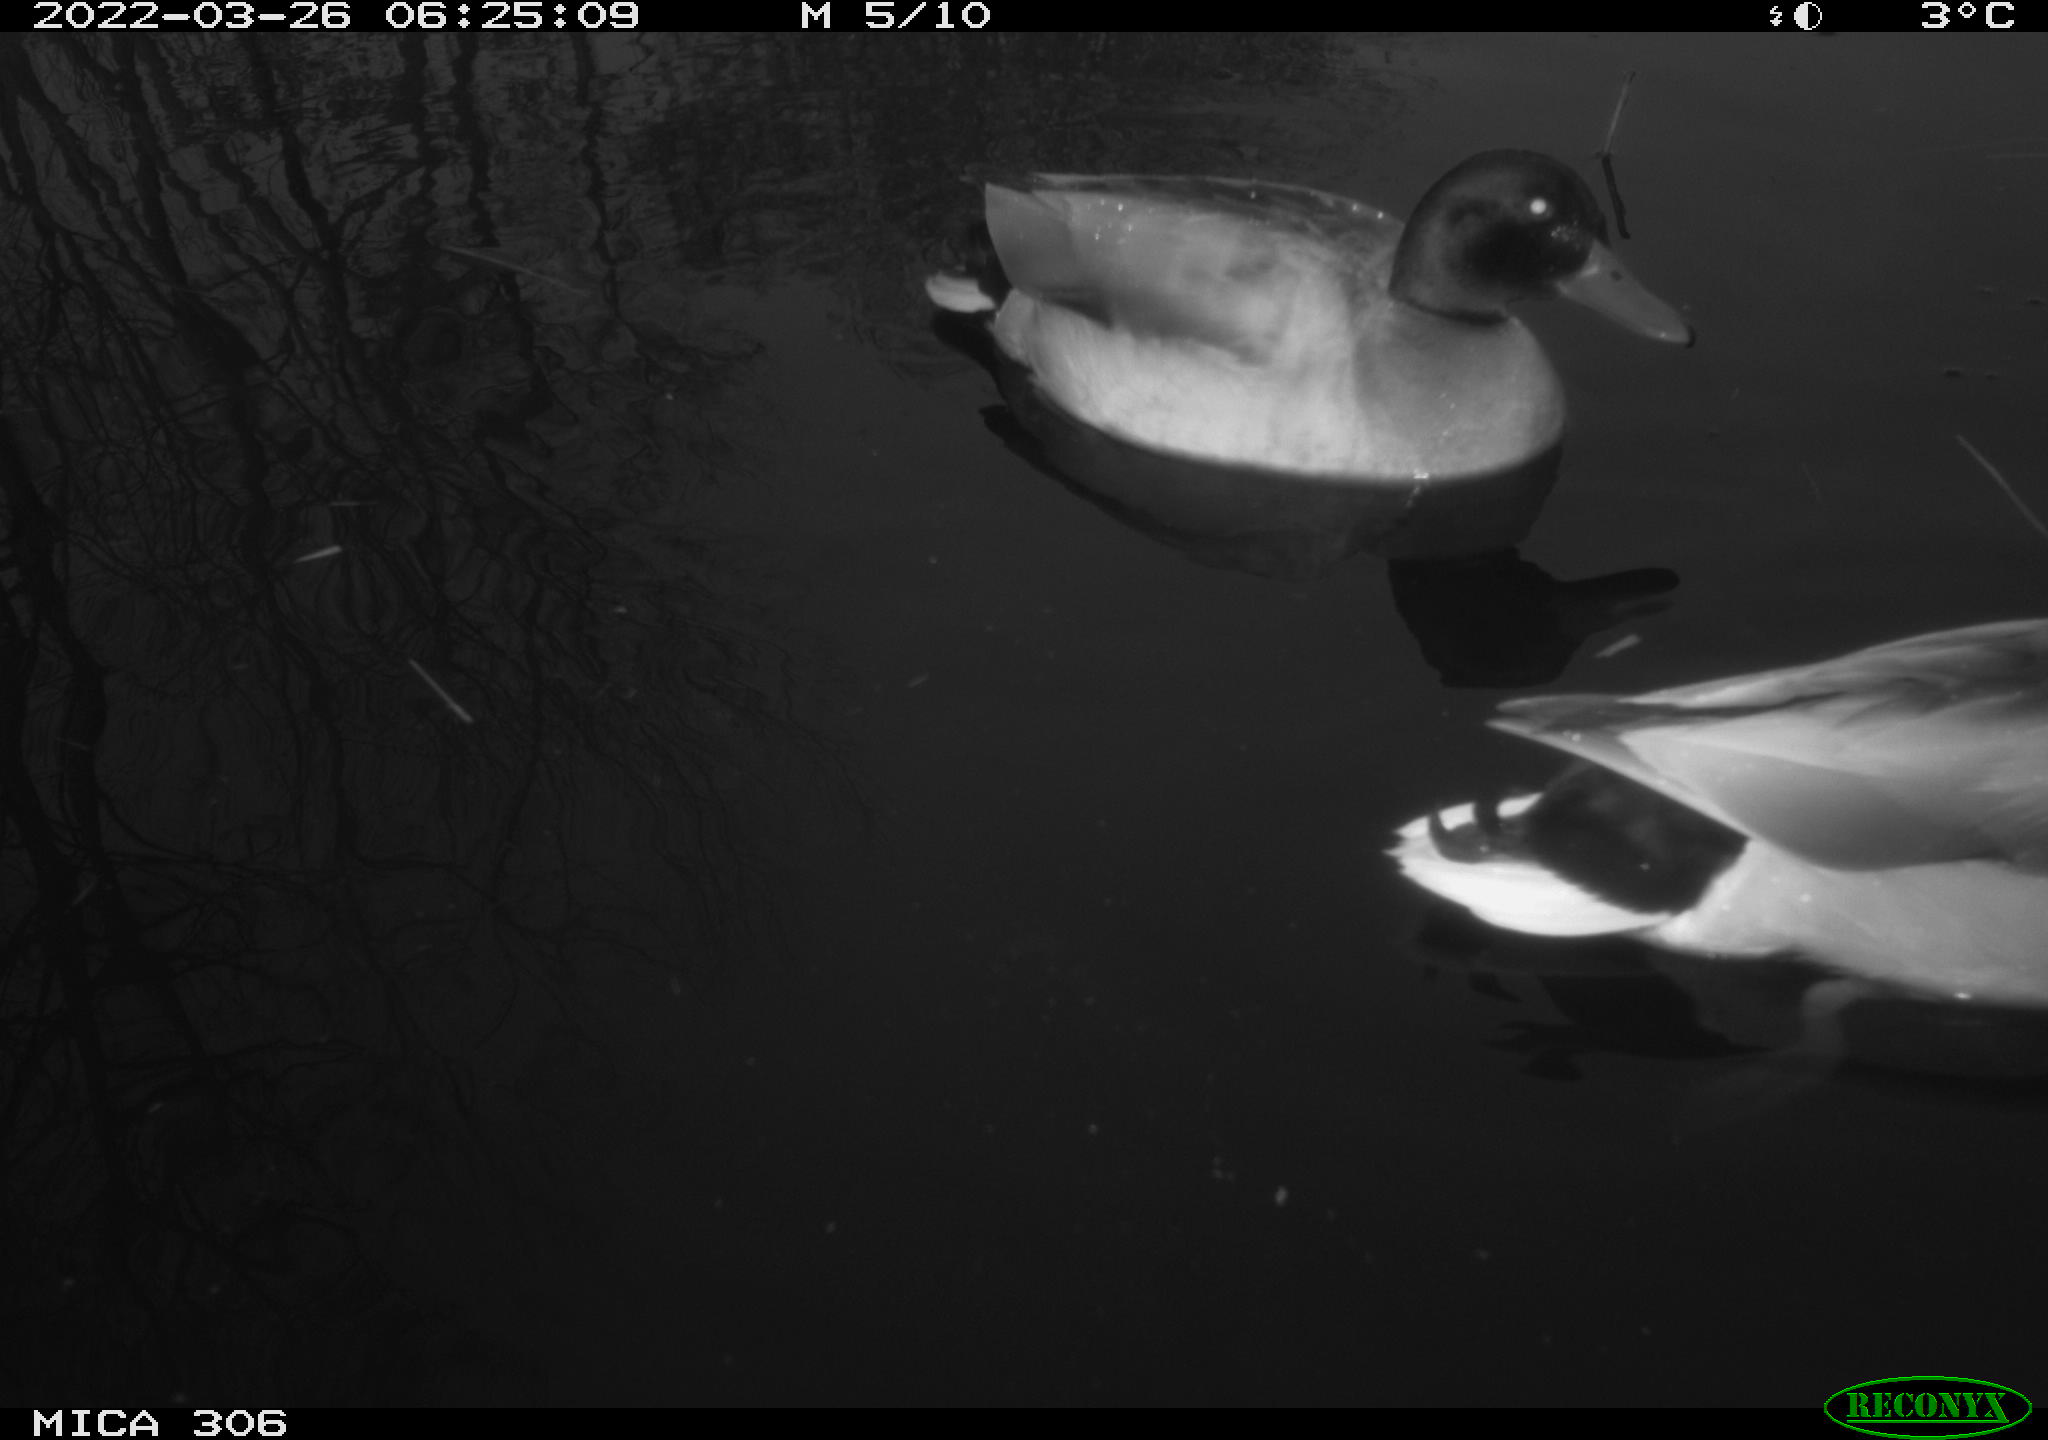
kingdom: Animalia
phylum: Chordata
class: Aves
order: Anseriformes
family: Anatidae
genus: Anas
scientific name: Anas
